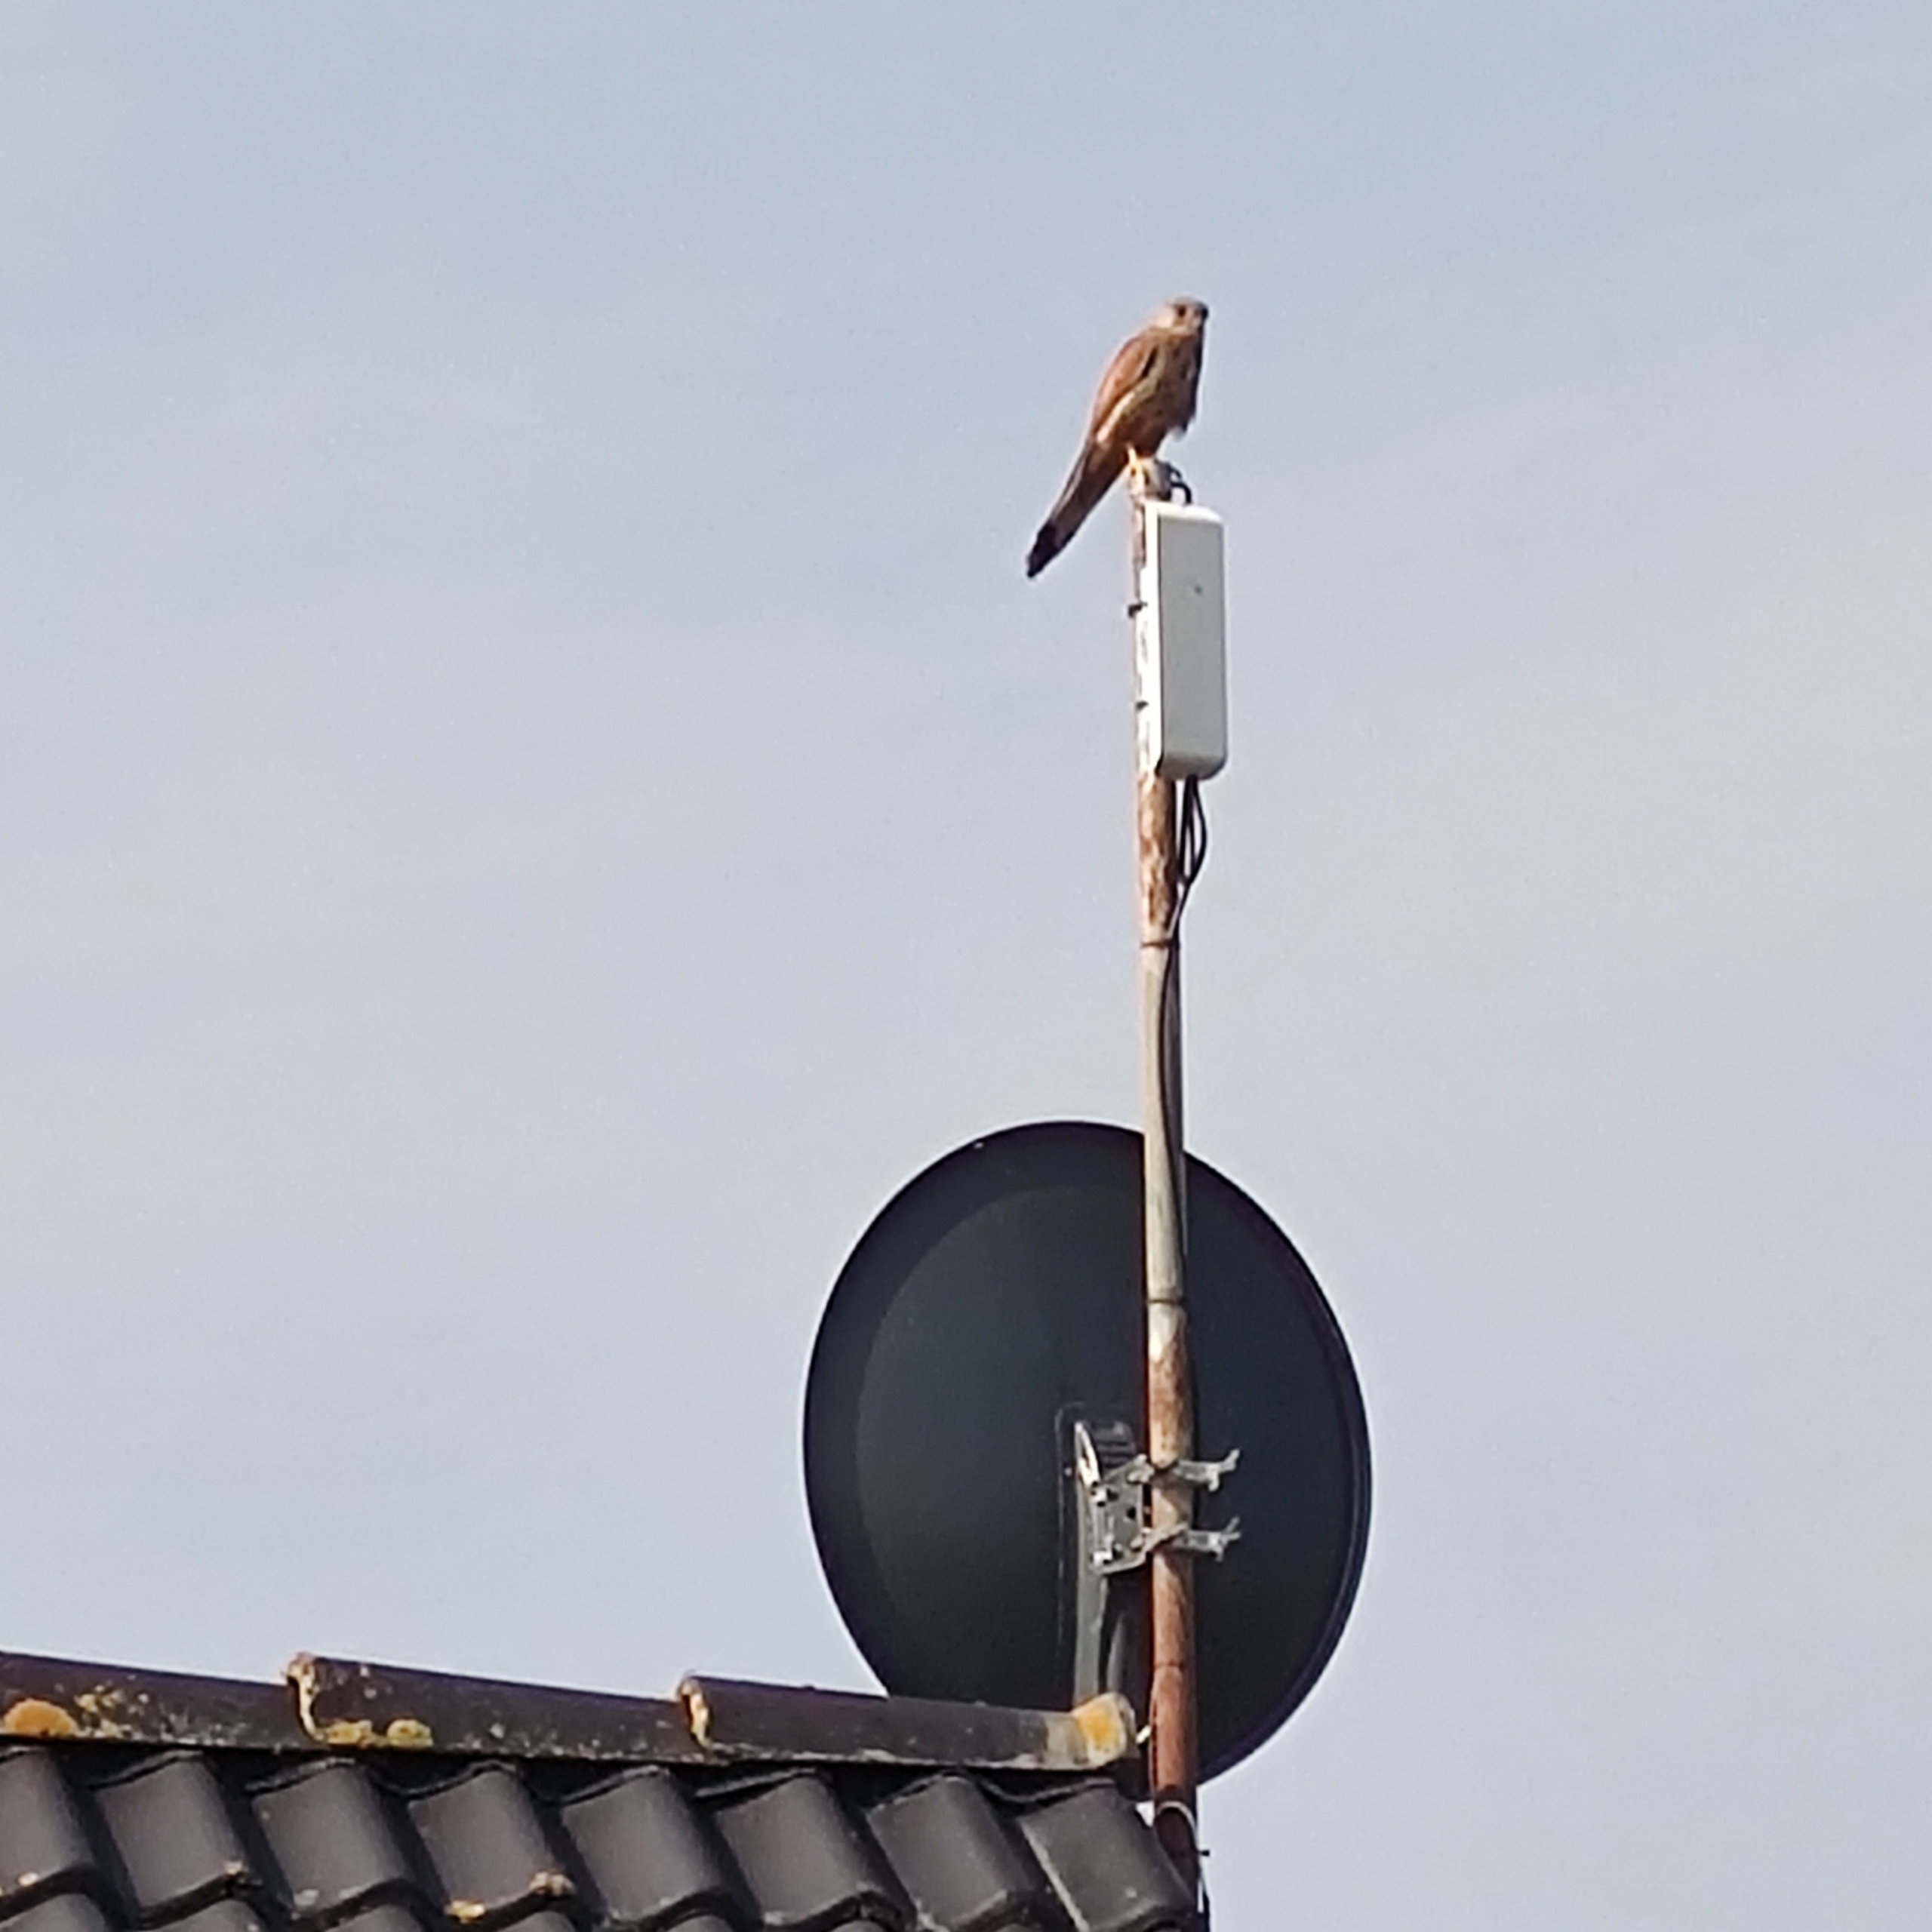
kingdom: Animalia
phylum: Chordata
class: Aves
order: Falconiformes
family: Falconidae
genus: Falco
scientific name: Falco tinnunculus
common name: Tårnfalk
